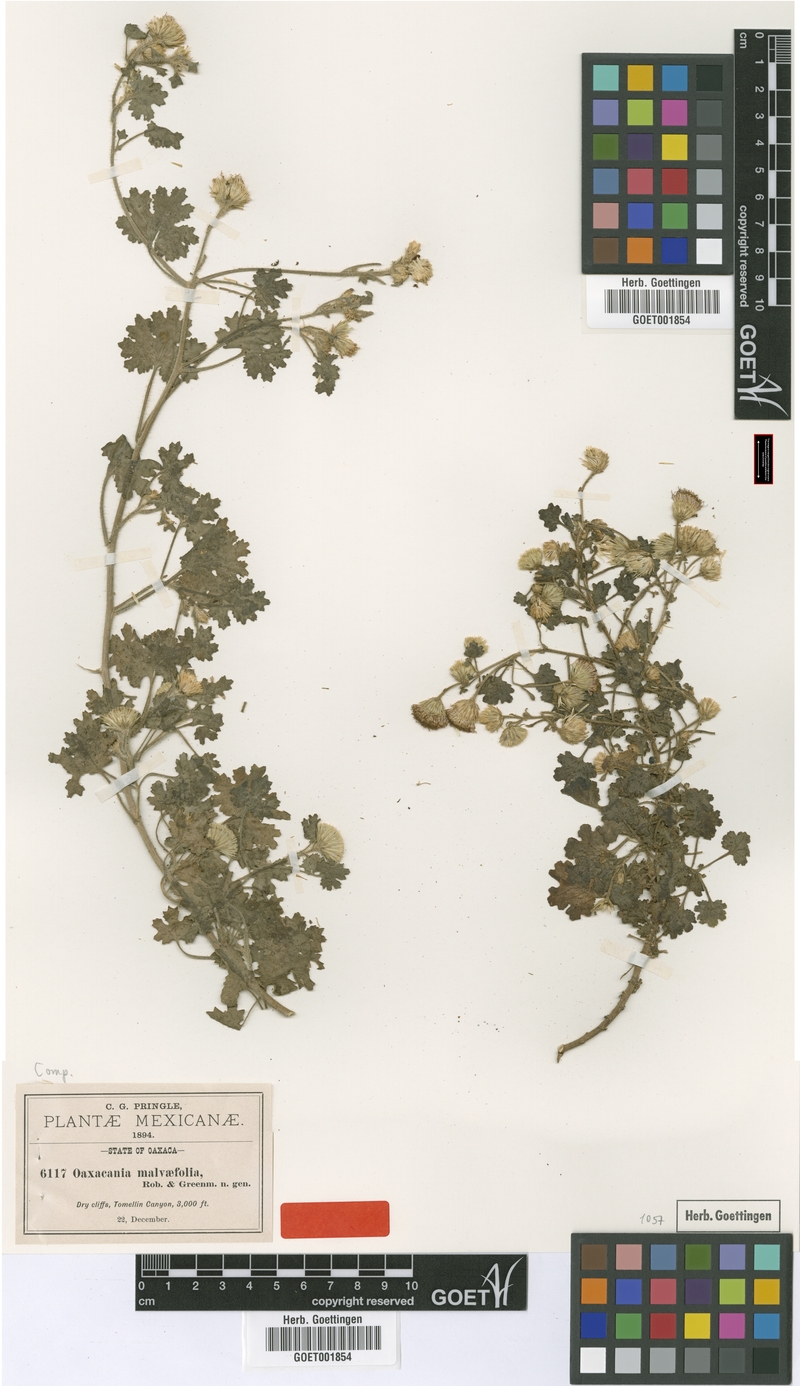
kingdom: Plantae
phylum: Tracheophyta
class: Magnoliopsida
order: Asterales
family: Asteraceae
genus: Oaxacania
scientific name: Oaxacania malvaefolia
